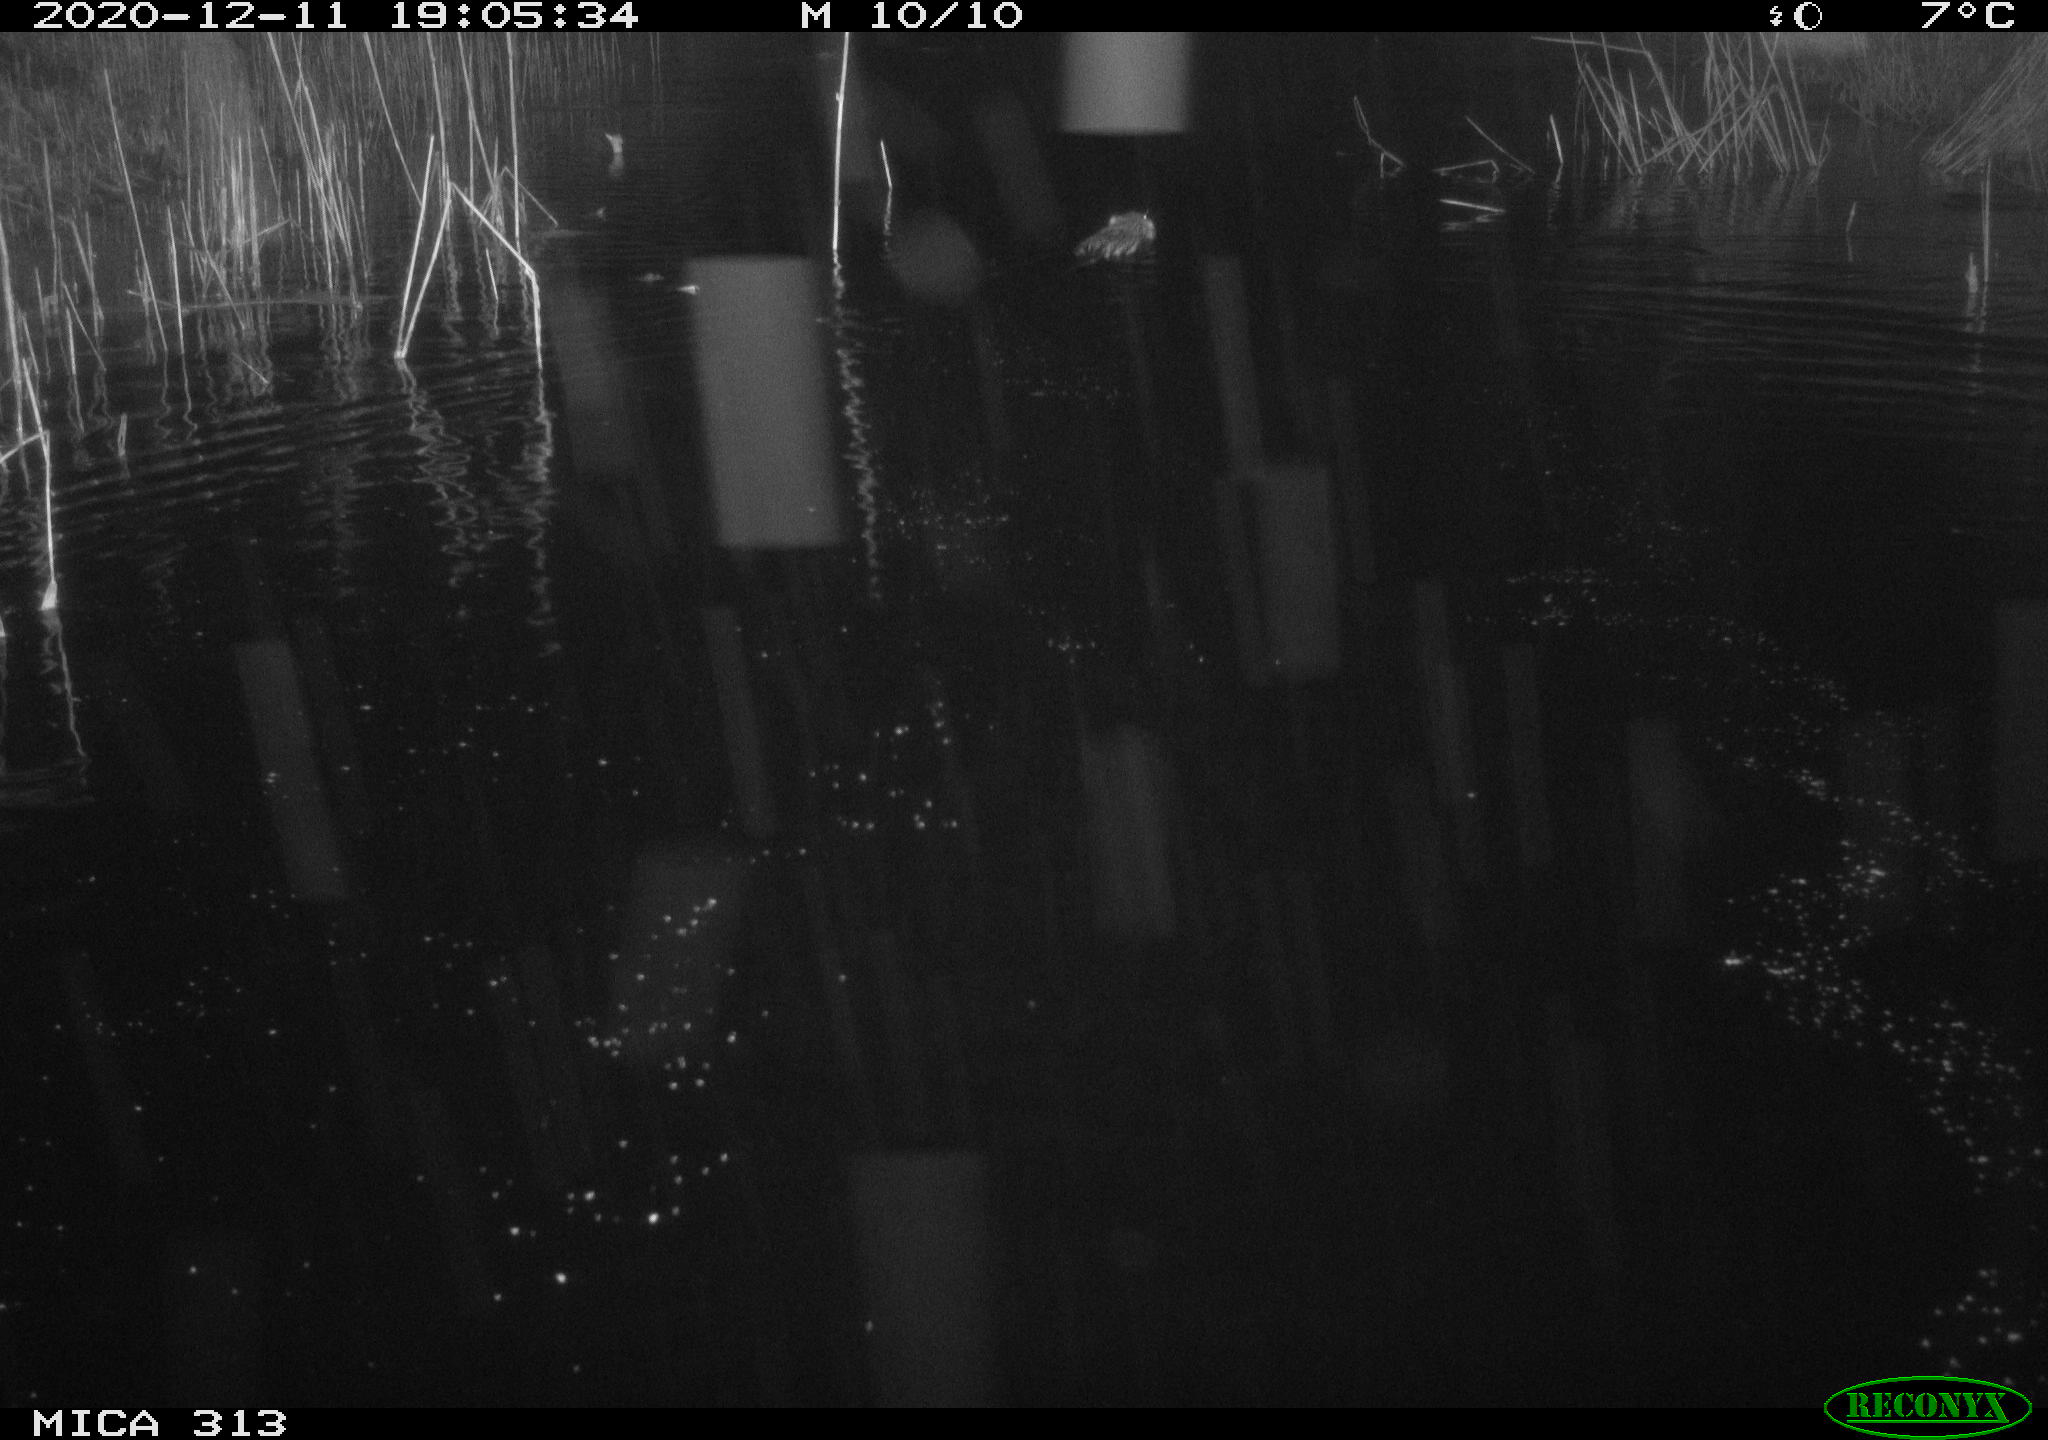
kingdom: Animalia
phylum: Chordata
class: Mammalia
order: Rodentia
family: Cricetidae
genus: Ondatra
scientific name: Ondatra zibethicus
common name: Muskrat
